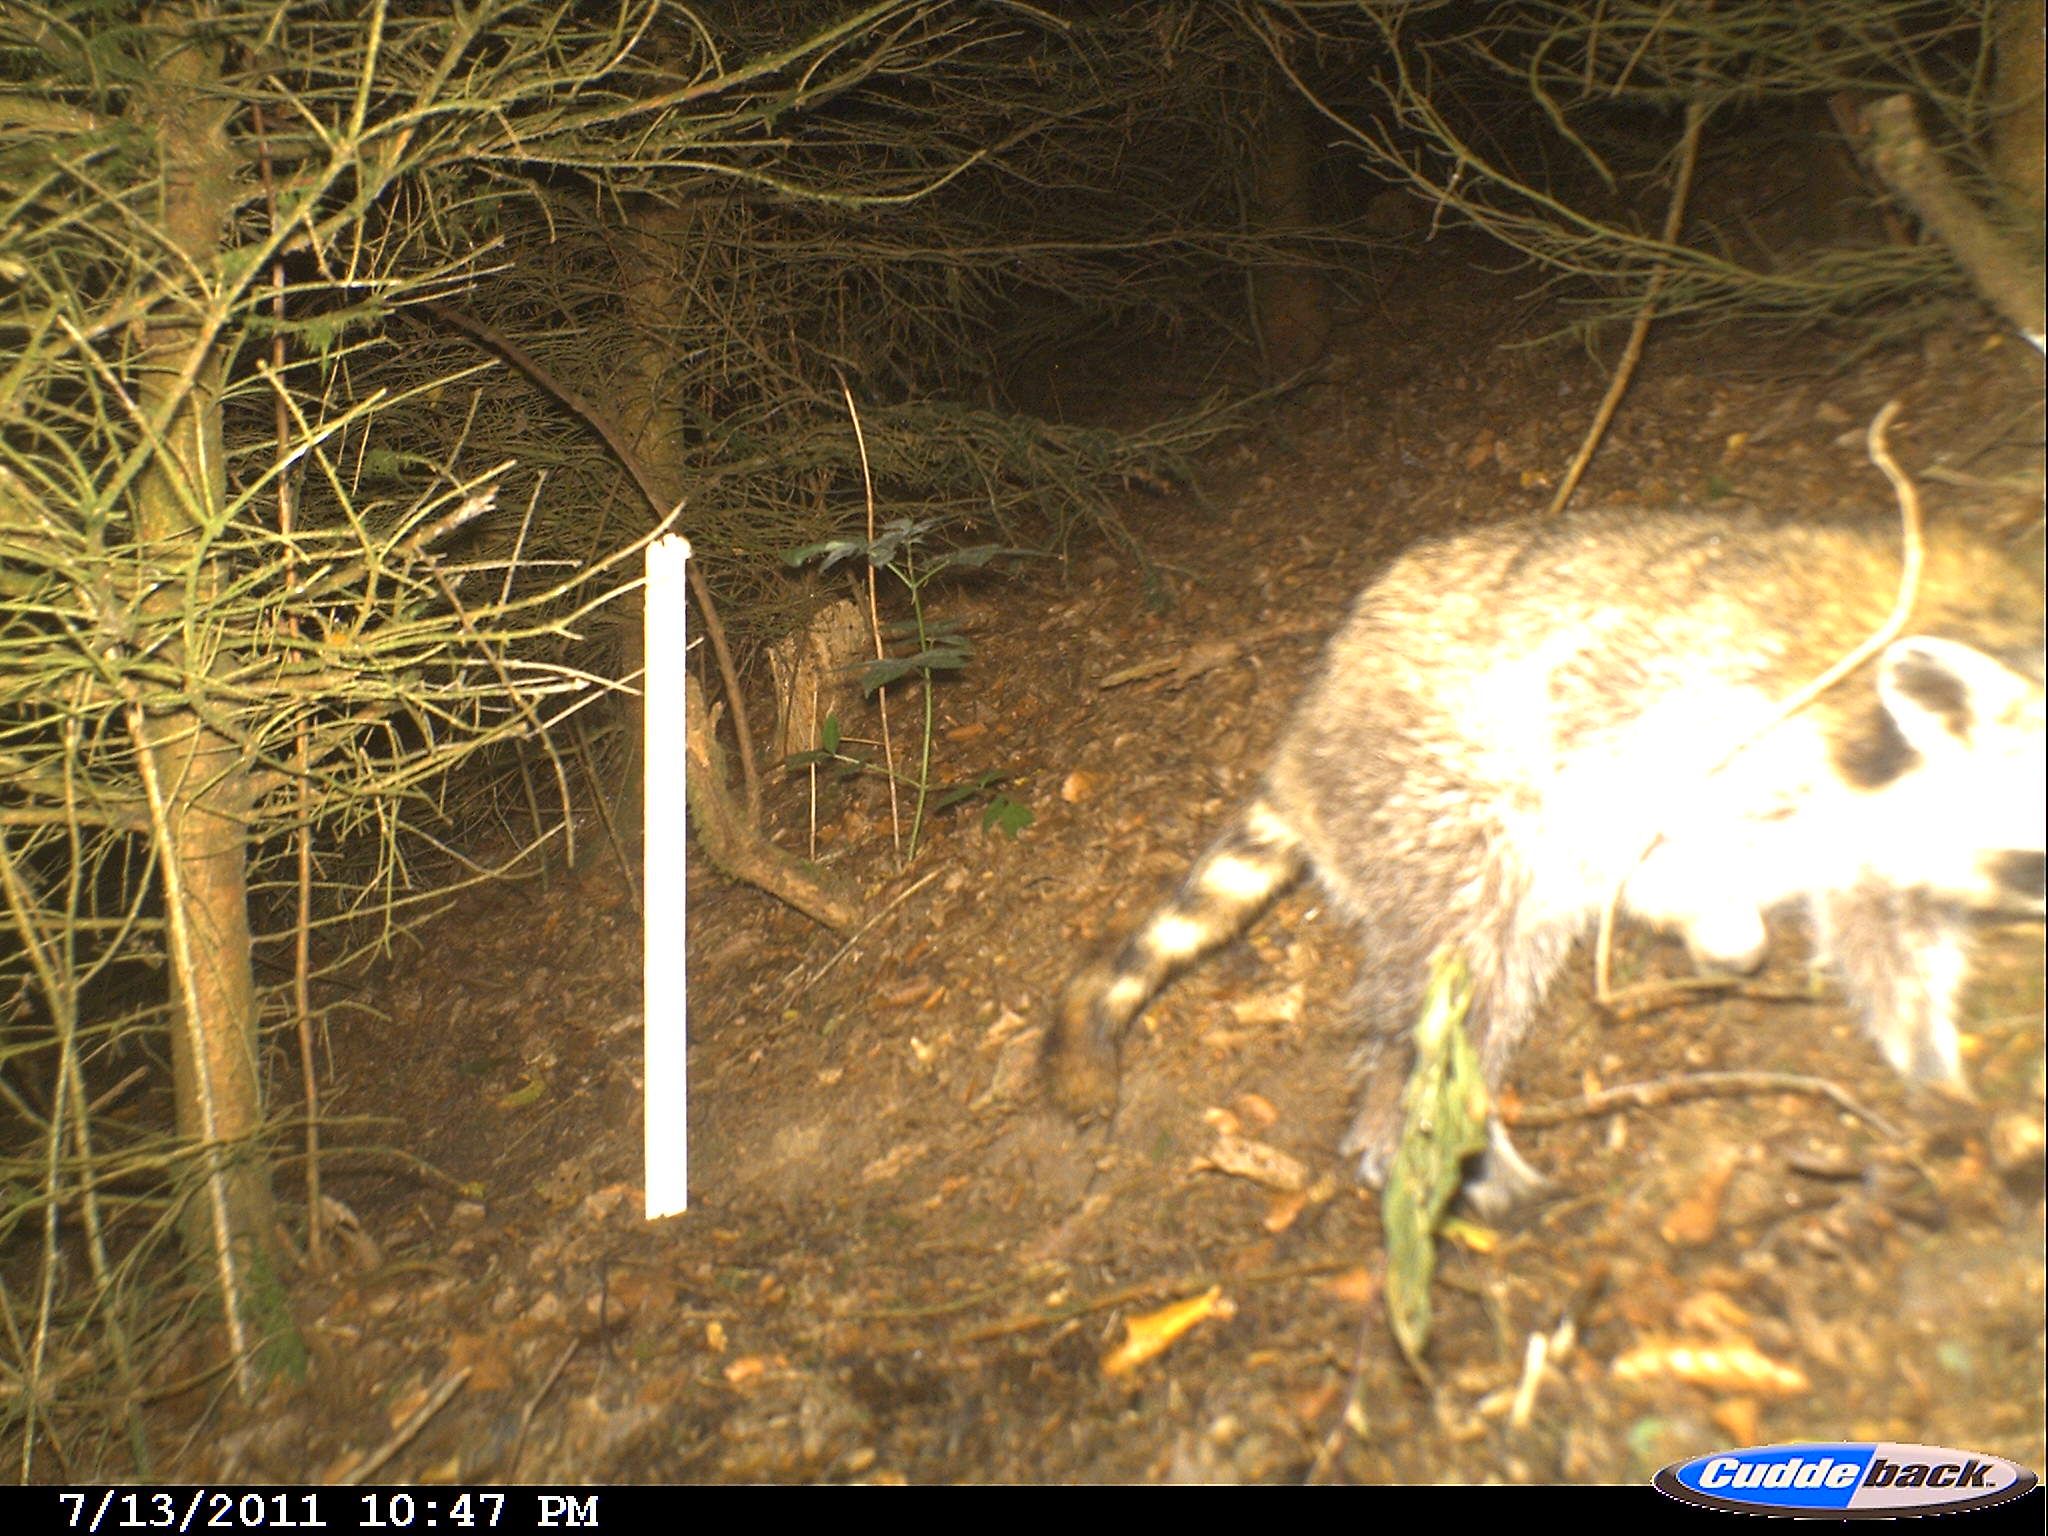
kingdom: Animalia
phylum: Chordata
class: Mammalia
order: Carnivora
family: Procyonidae
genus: Procyon
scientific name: Procyon lotor
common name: Raccoon
